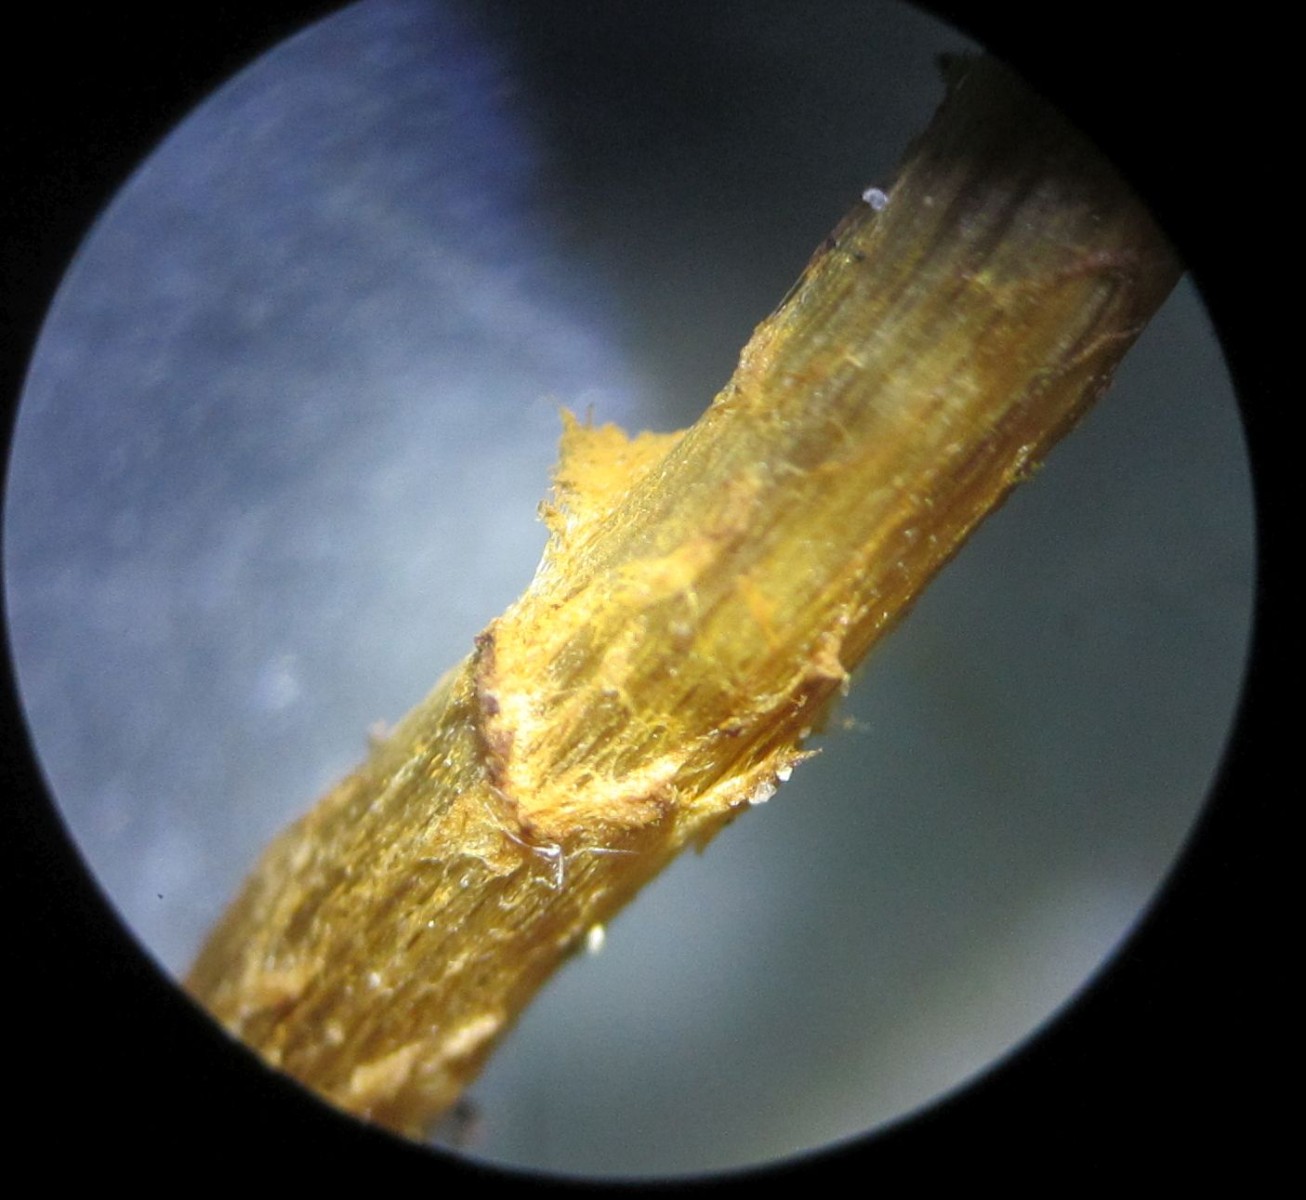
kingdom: Fungi
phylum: Basidiomycota
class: Agaricomycetes
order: Agaricales
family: Cortinariaceae
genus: Cortinarius
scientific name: Cortinarius quercoconicus
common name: agernskål-slørhat
